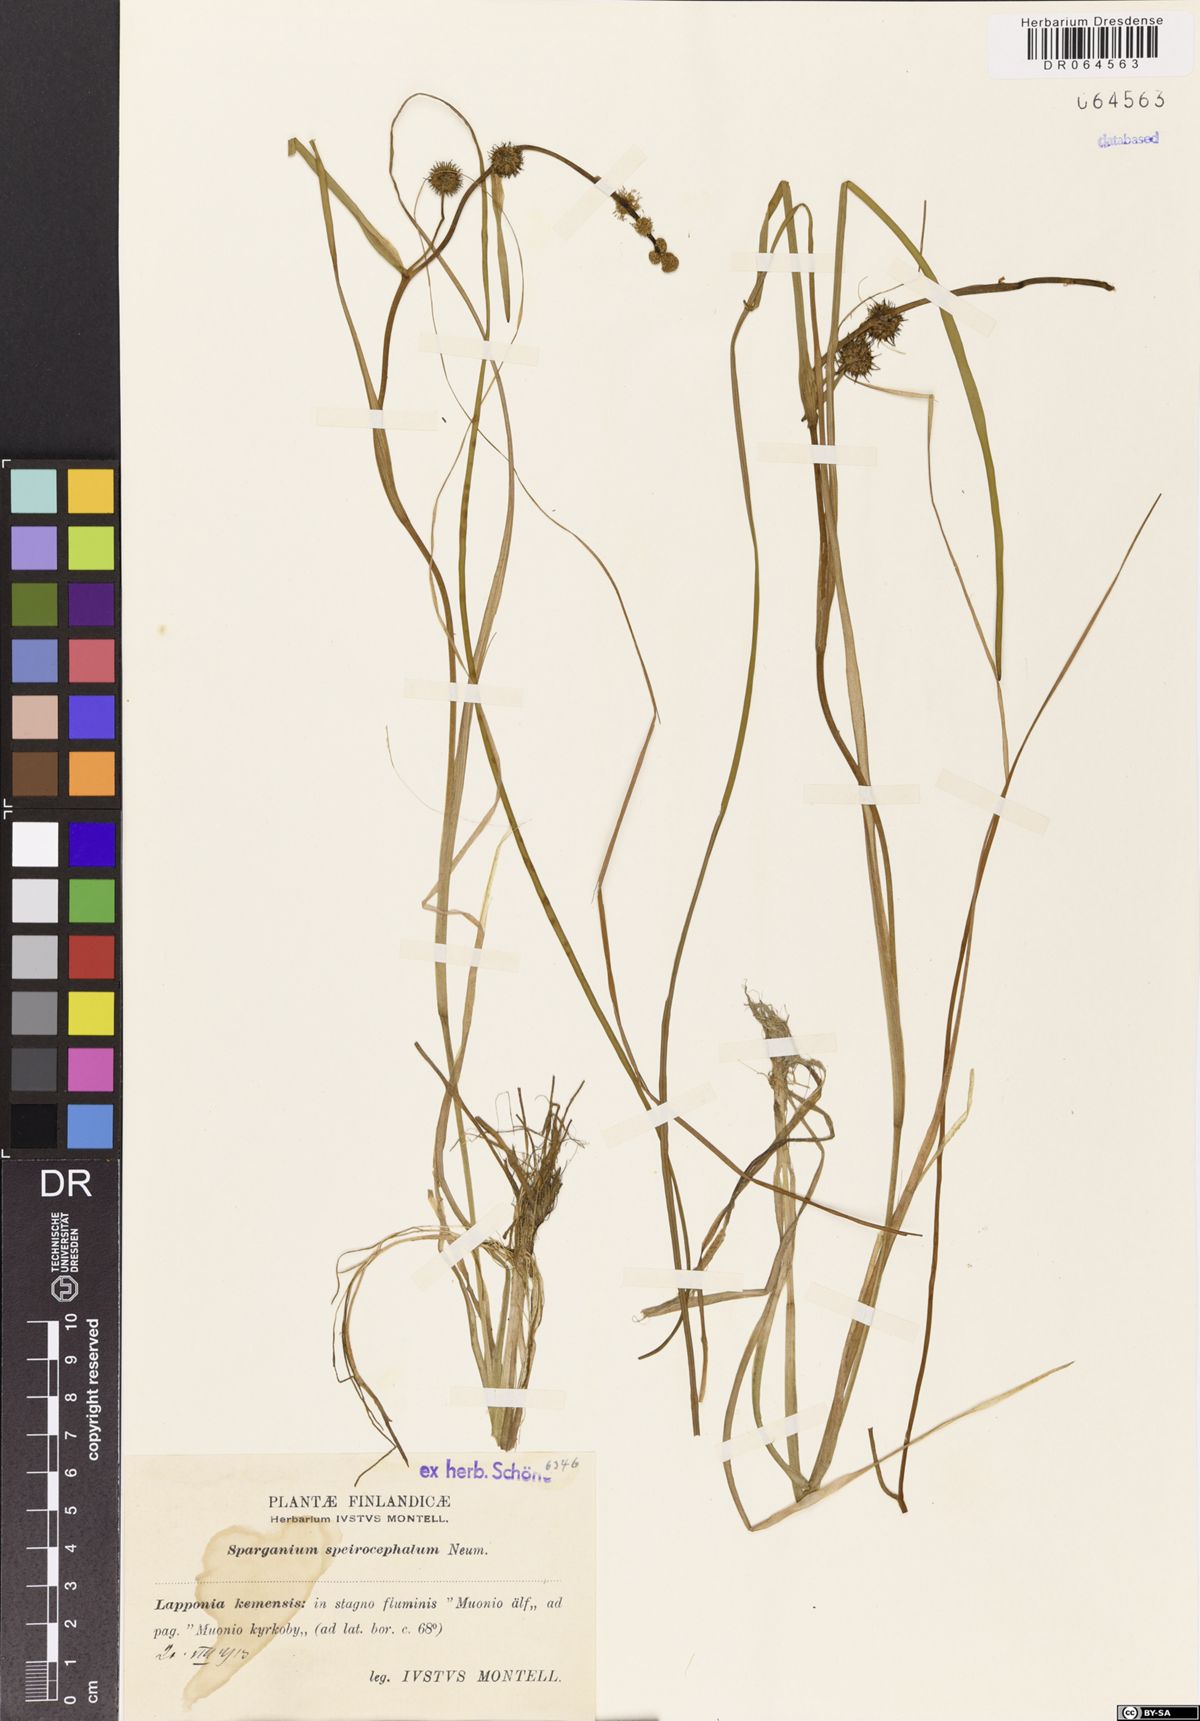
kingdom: Plantae
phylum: Tracheophyta
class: Liliopsida
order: Poales
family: Typhaceae
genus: Sparganium
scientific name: Sparganium speirocephalum
